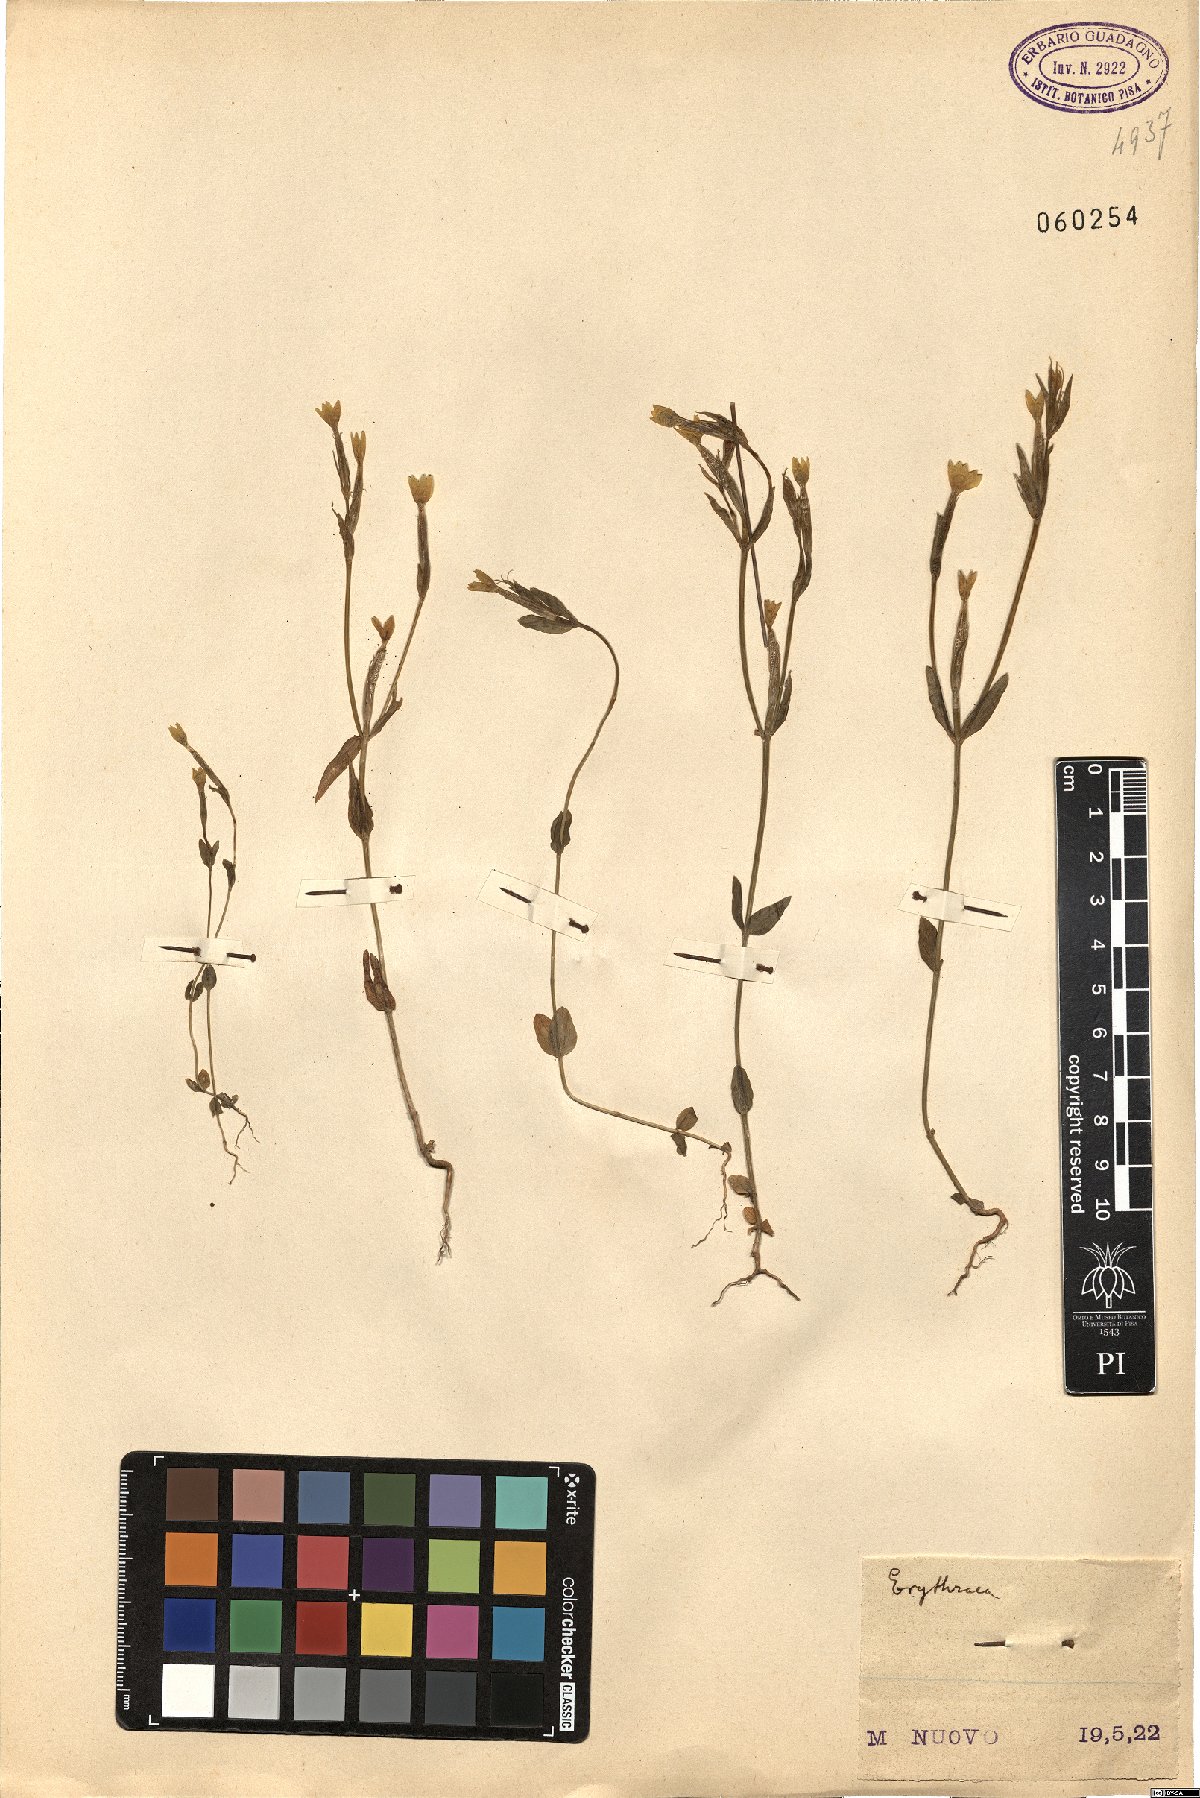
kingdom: Plantae
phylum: Tracheophyta
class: Magnoliopsida
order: Gentianales
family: Gentianaceae
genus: Erythraea
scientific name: Erythraea
